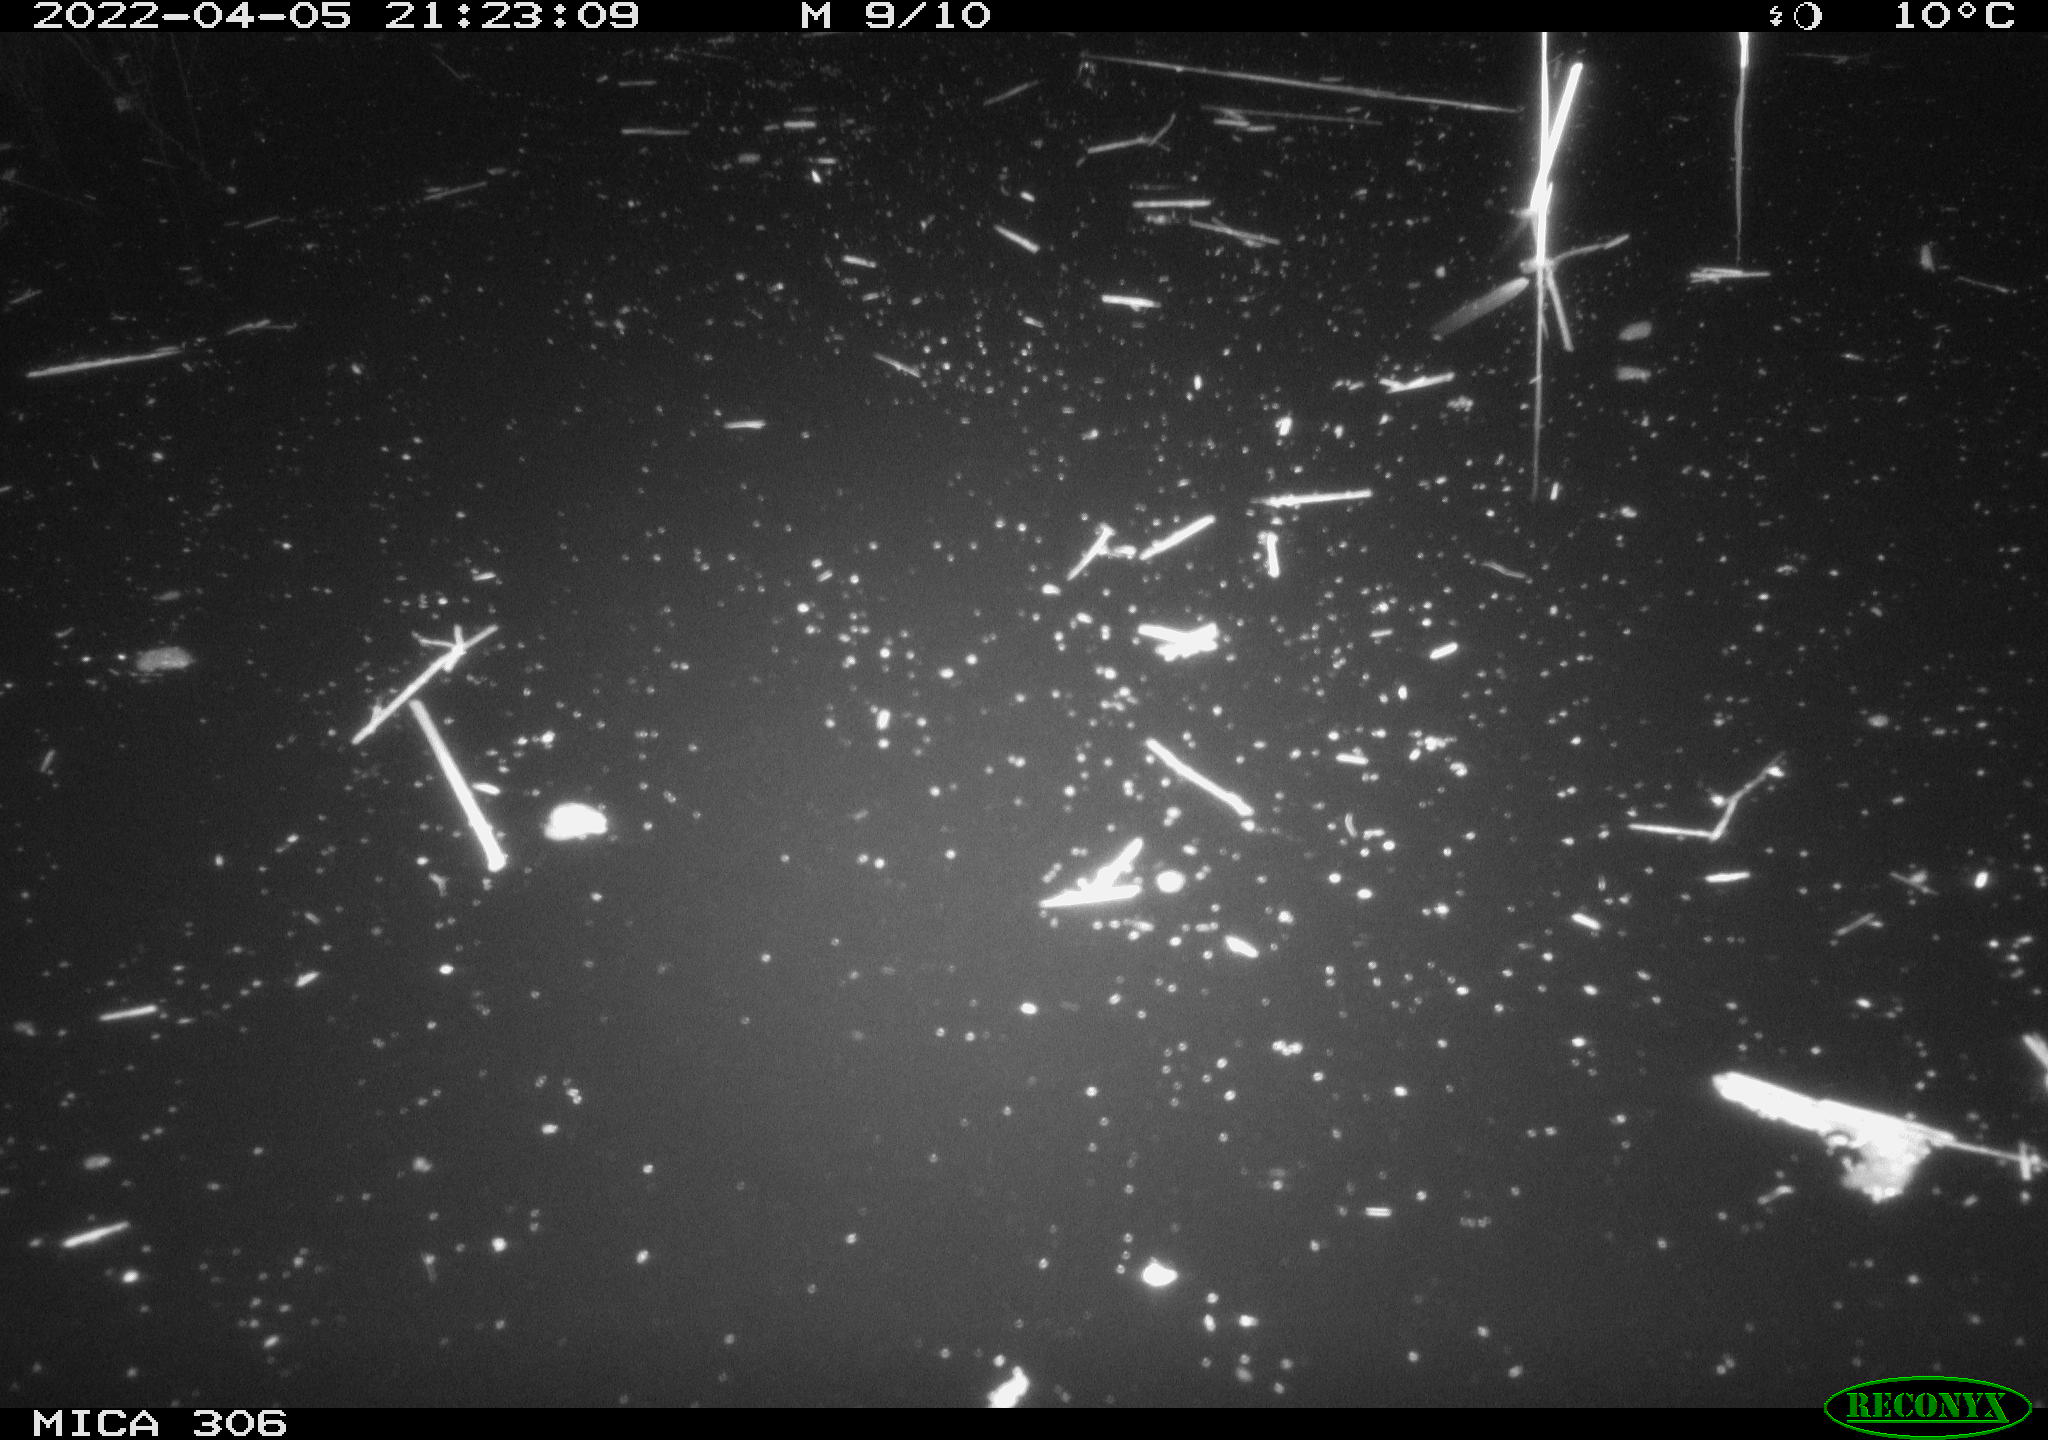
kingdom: Animalia
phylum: Chordata
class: Aves
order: Gruiformes
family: Rallidae
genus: Gallinula
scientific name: Gallinula chloropus
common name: Common moorhen
